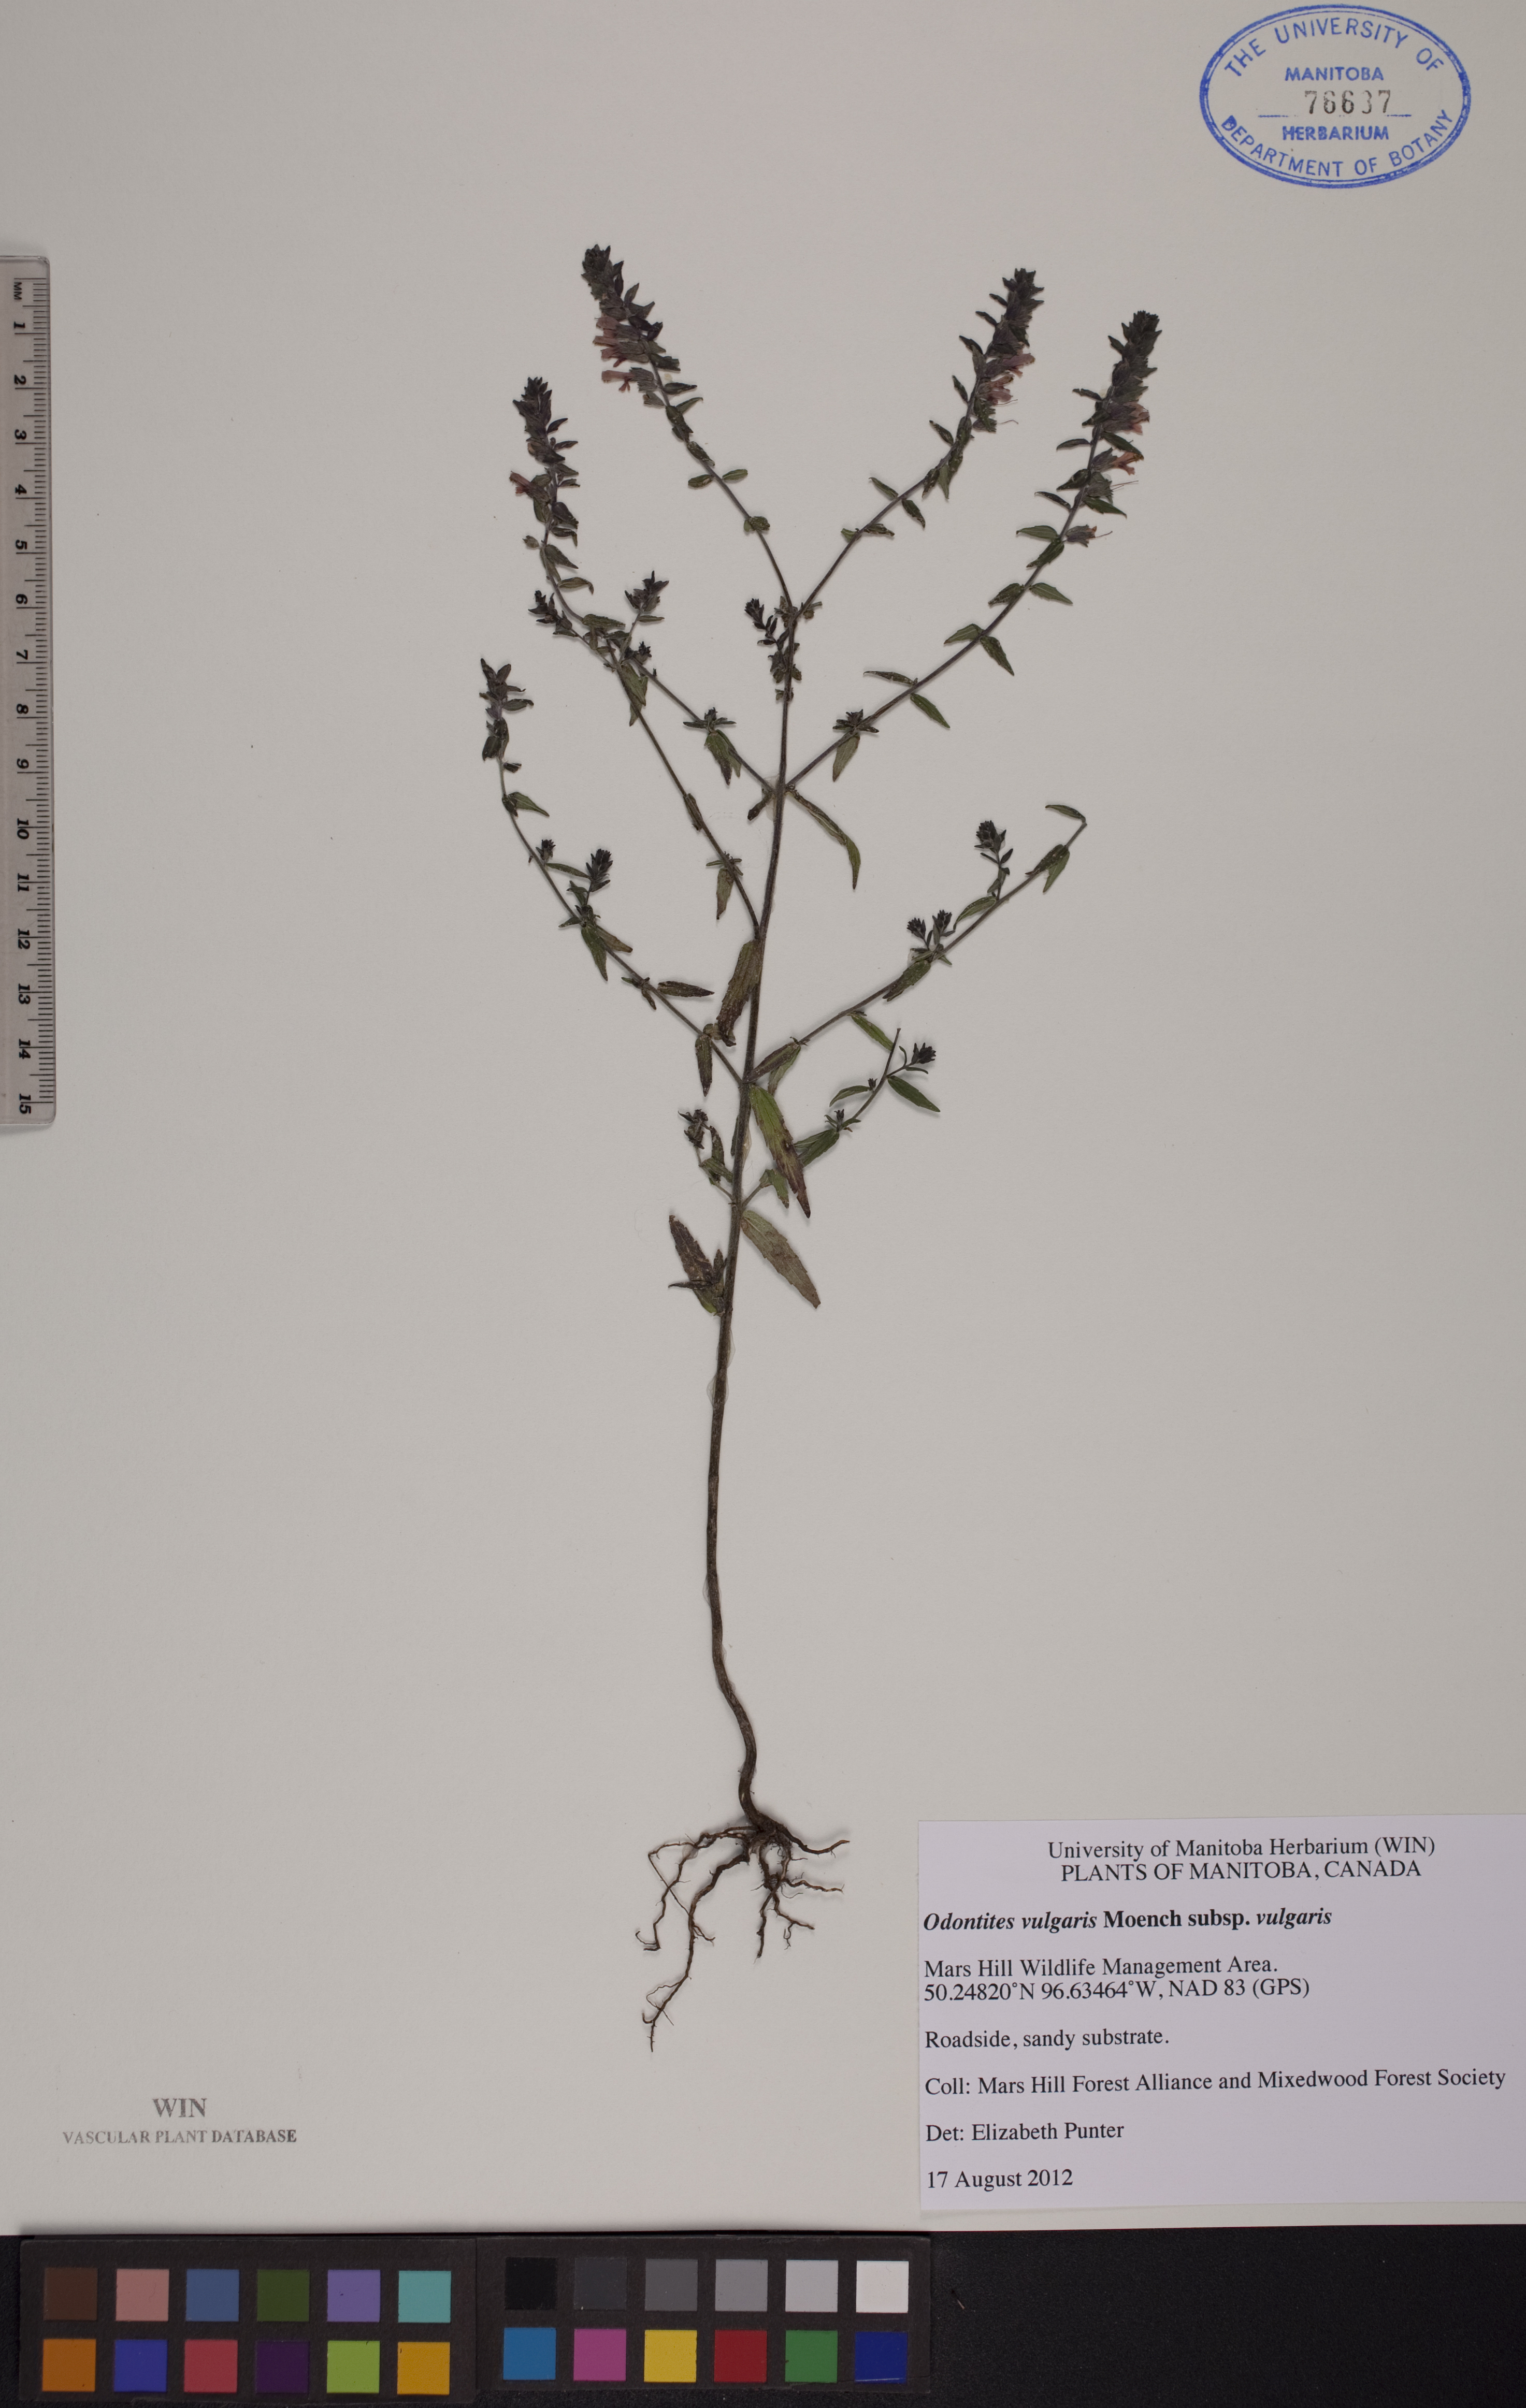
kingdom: Plantae
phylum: Tracheophyta
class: Magnoliopsida
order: Lamiales
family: Orobanchaceae
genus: Odontites
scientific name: Odontites vulgaris
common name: Broomrape
